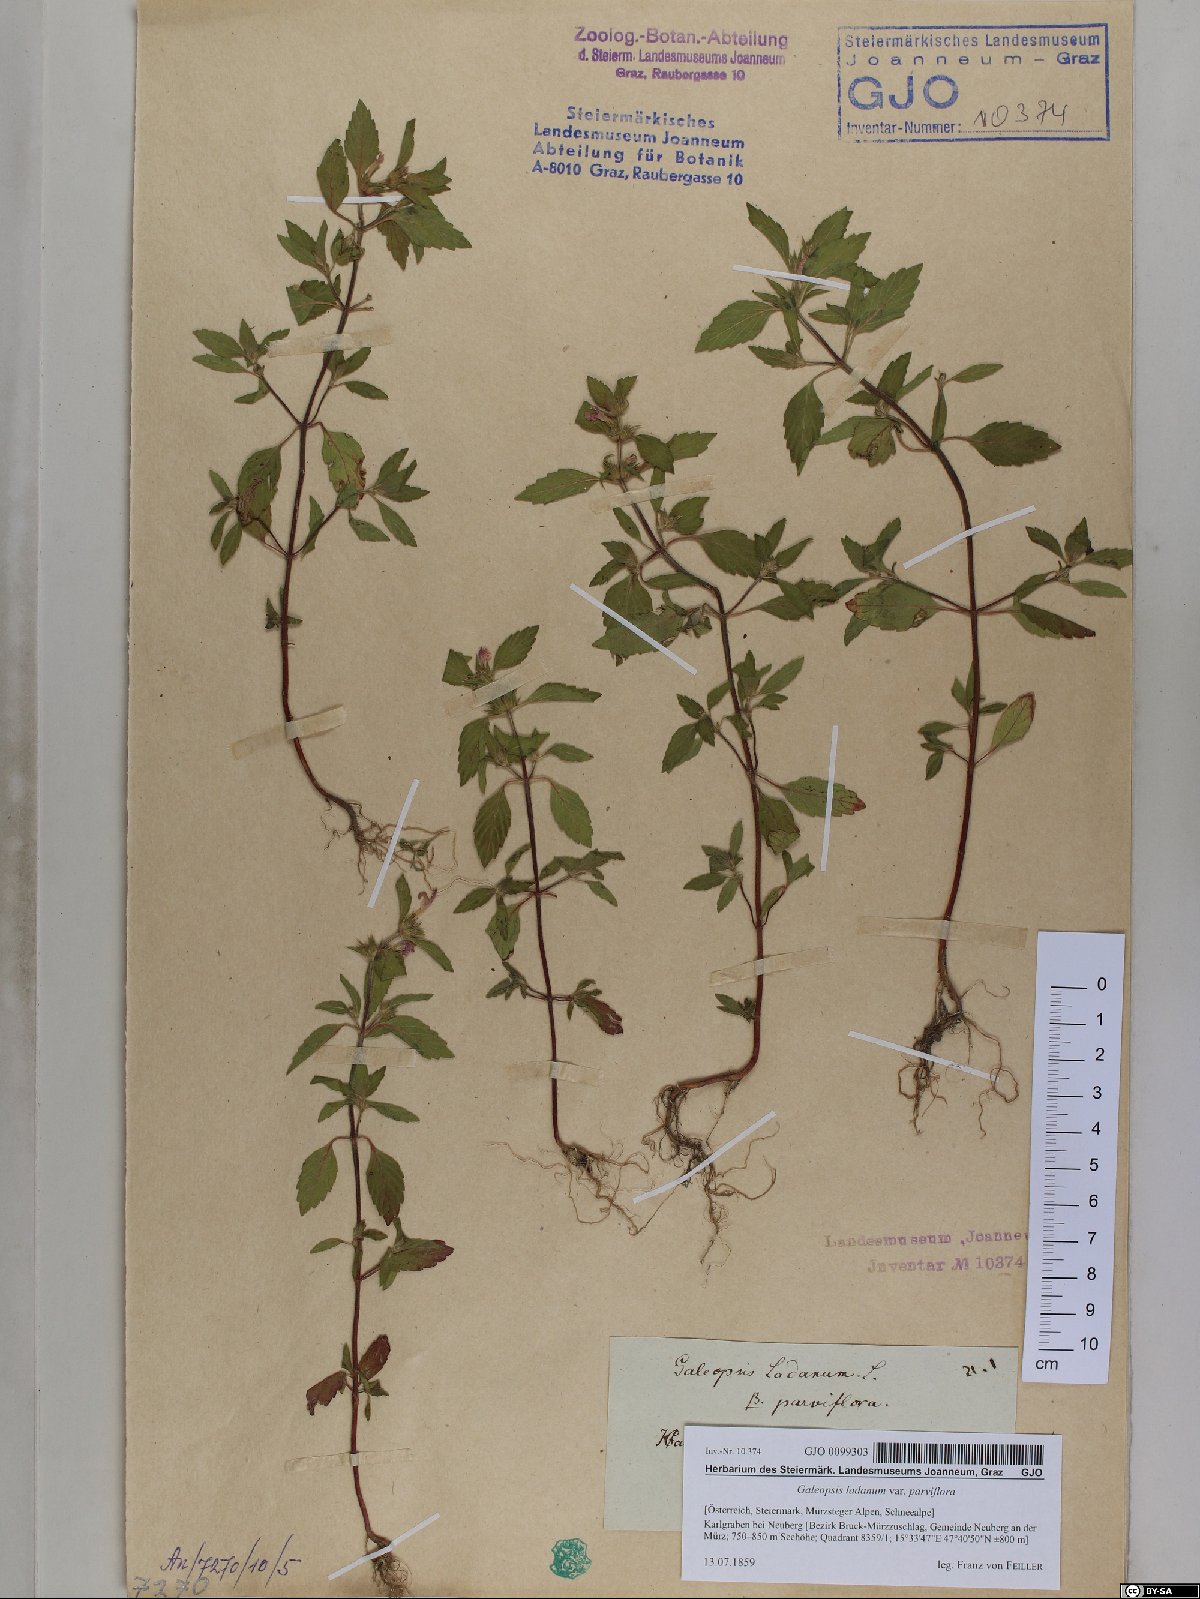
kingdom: Plantae
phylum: Tracheophyta
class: Magnoliopsida
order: Lamiales
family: Lamiaceae
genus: Galeopsis
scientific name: Galeopsis ladanum
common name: Broad-leaved hemp-nettle
